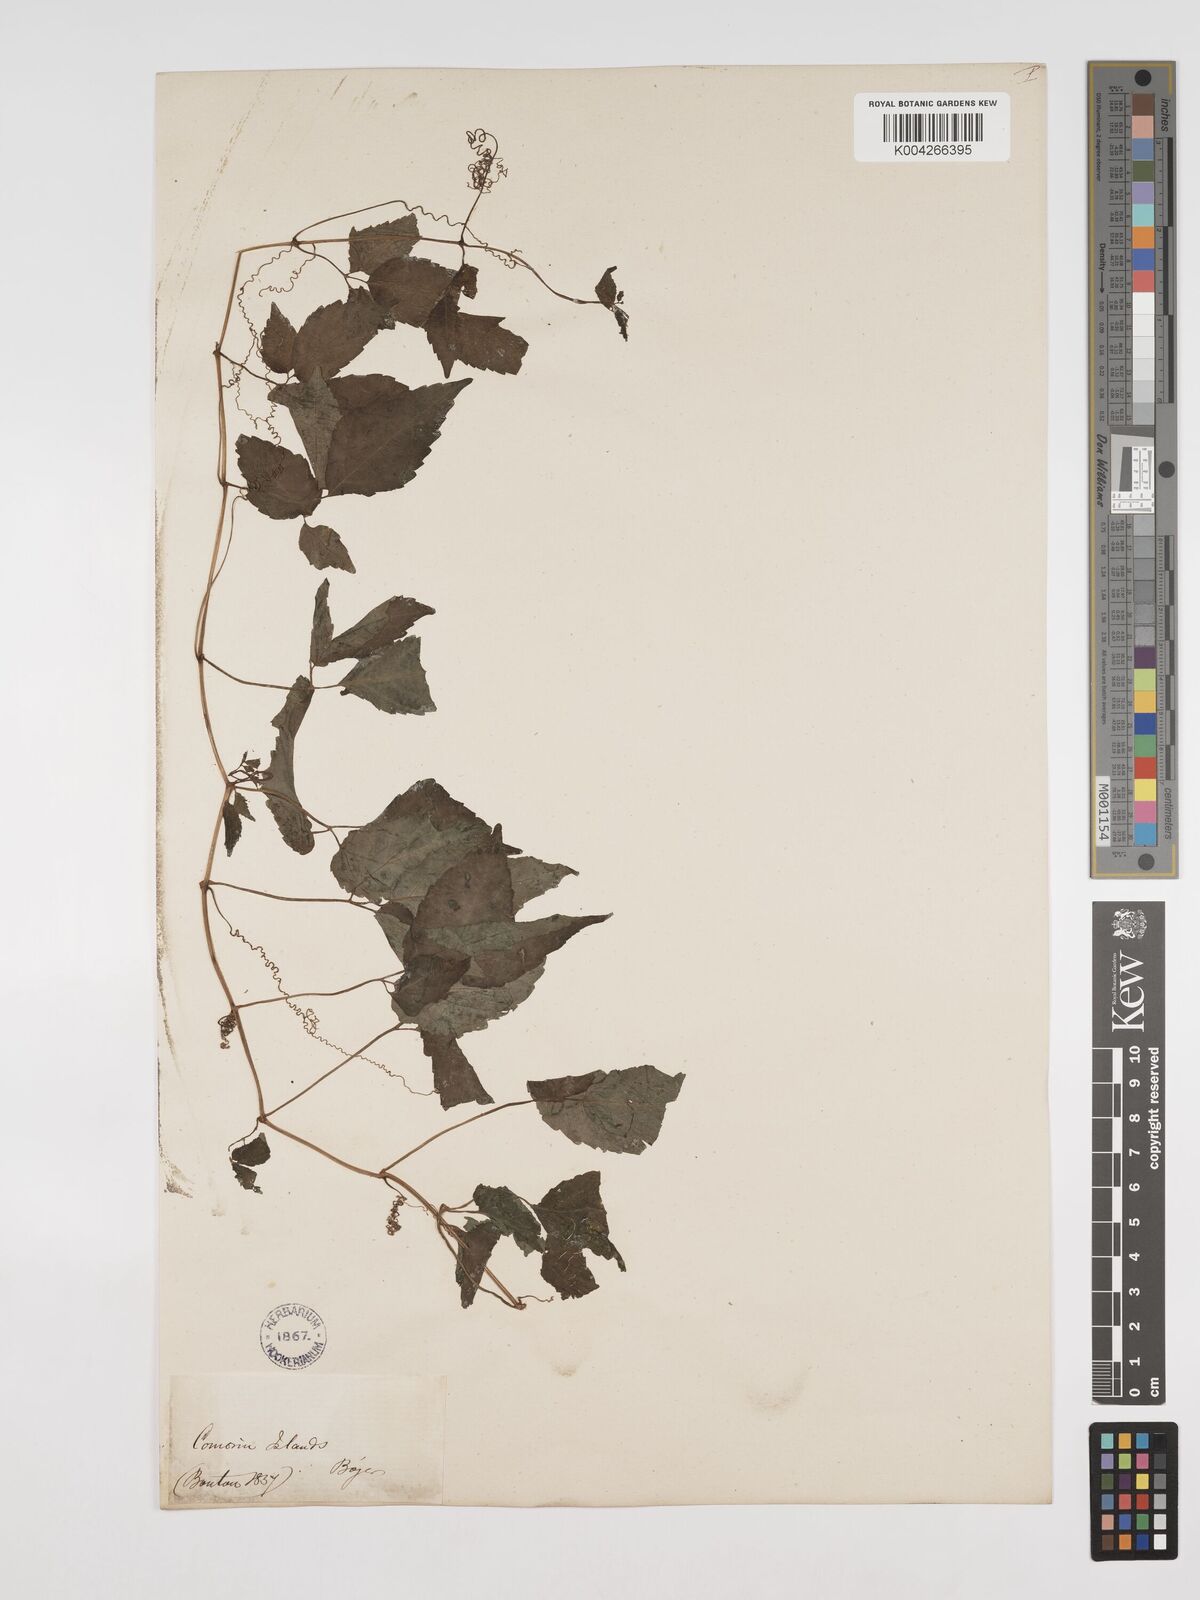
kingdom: Plantae
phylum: Tracheophyta
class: Magnoliopsida
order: Vitales
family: Vitaceae
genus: Cissus
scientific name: Cissus
